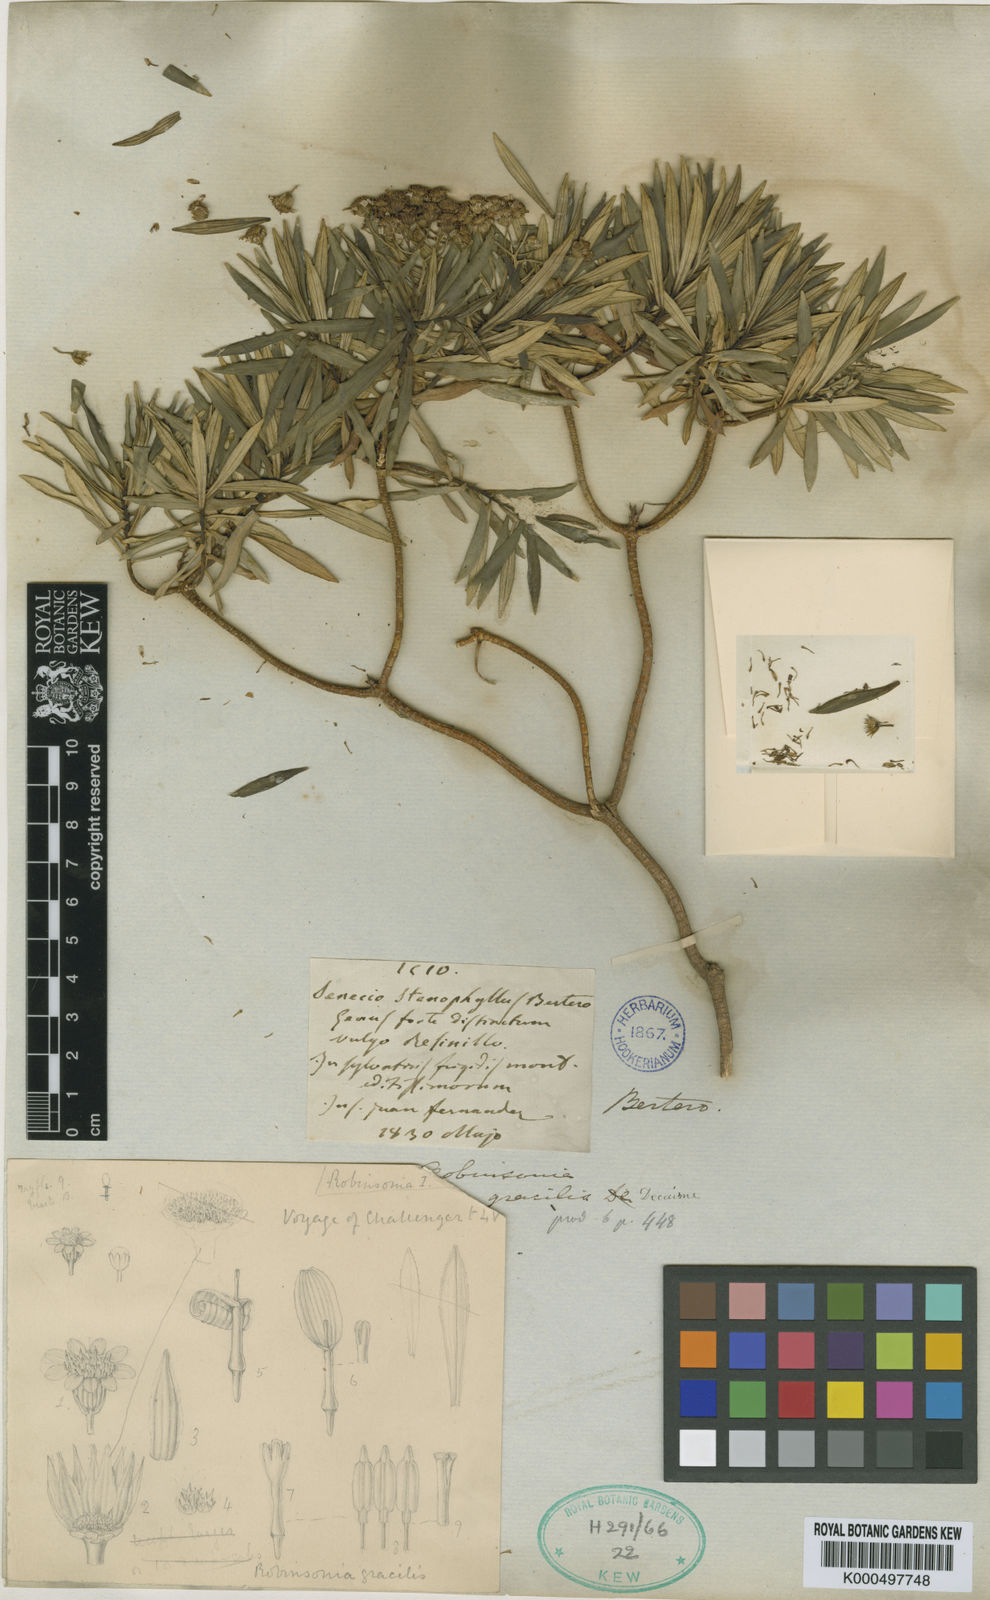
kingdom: Plantae
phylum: Tracheophyta
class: Magnoliopsida
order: Asterales
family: Asteraceae
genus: Robinsonia
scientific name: Robinsonia gracilis
